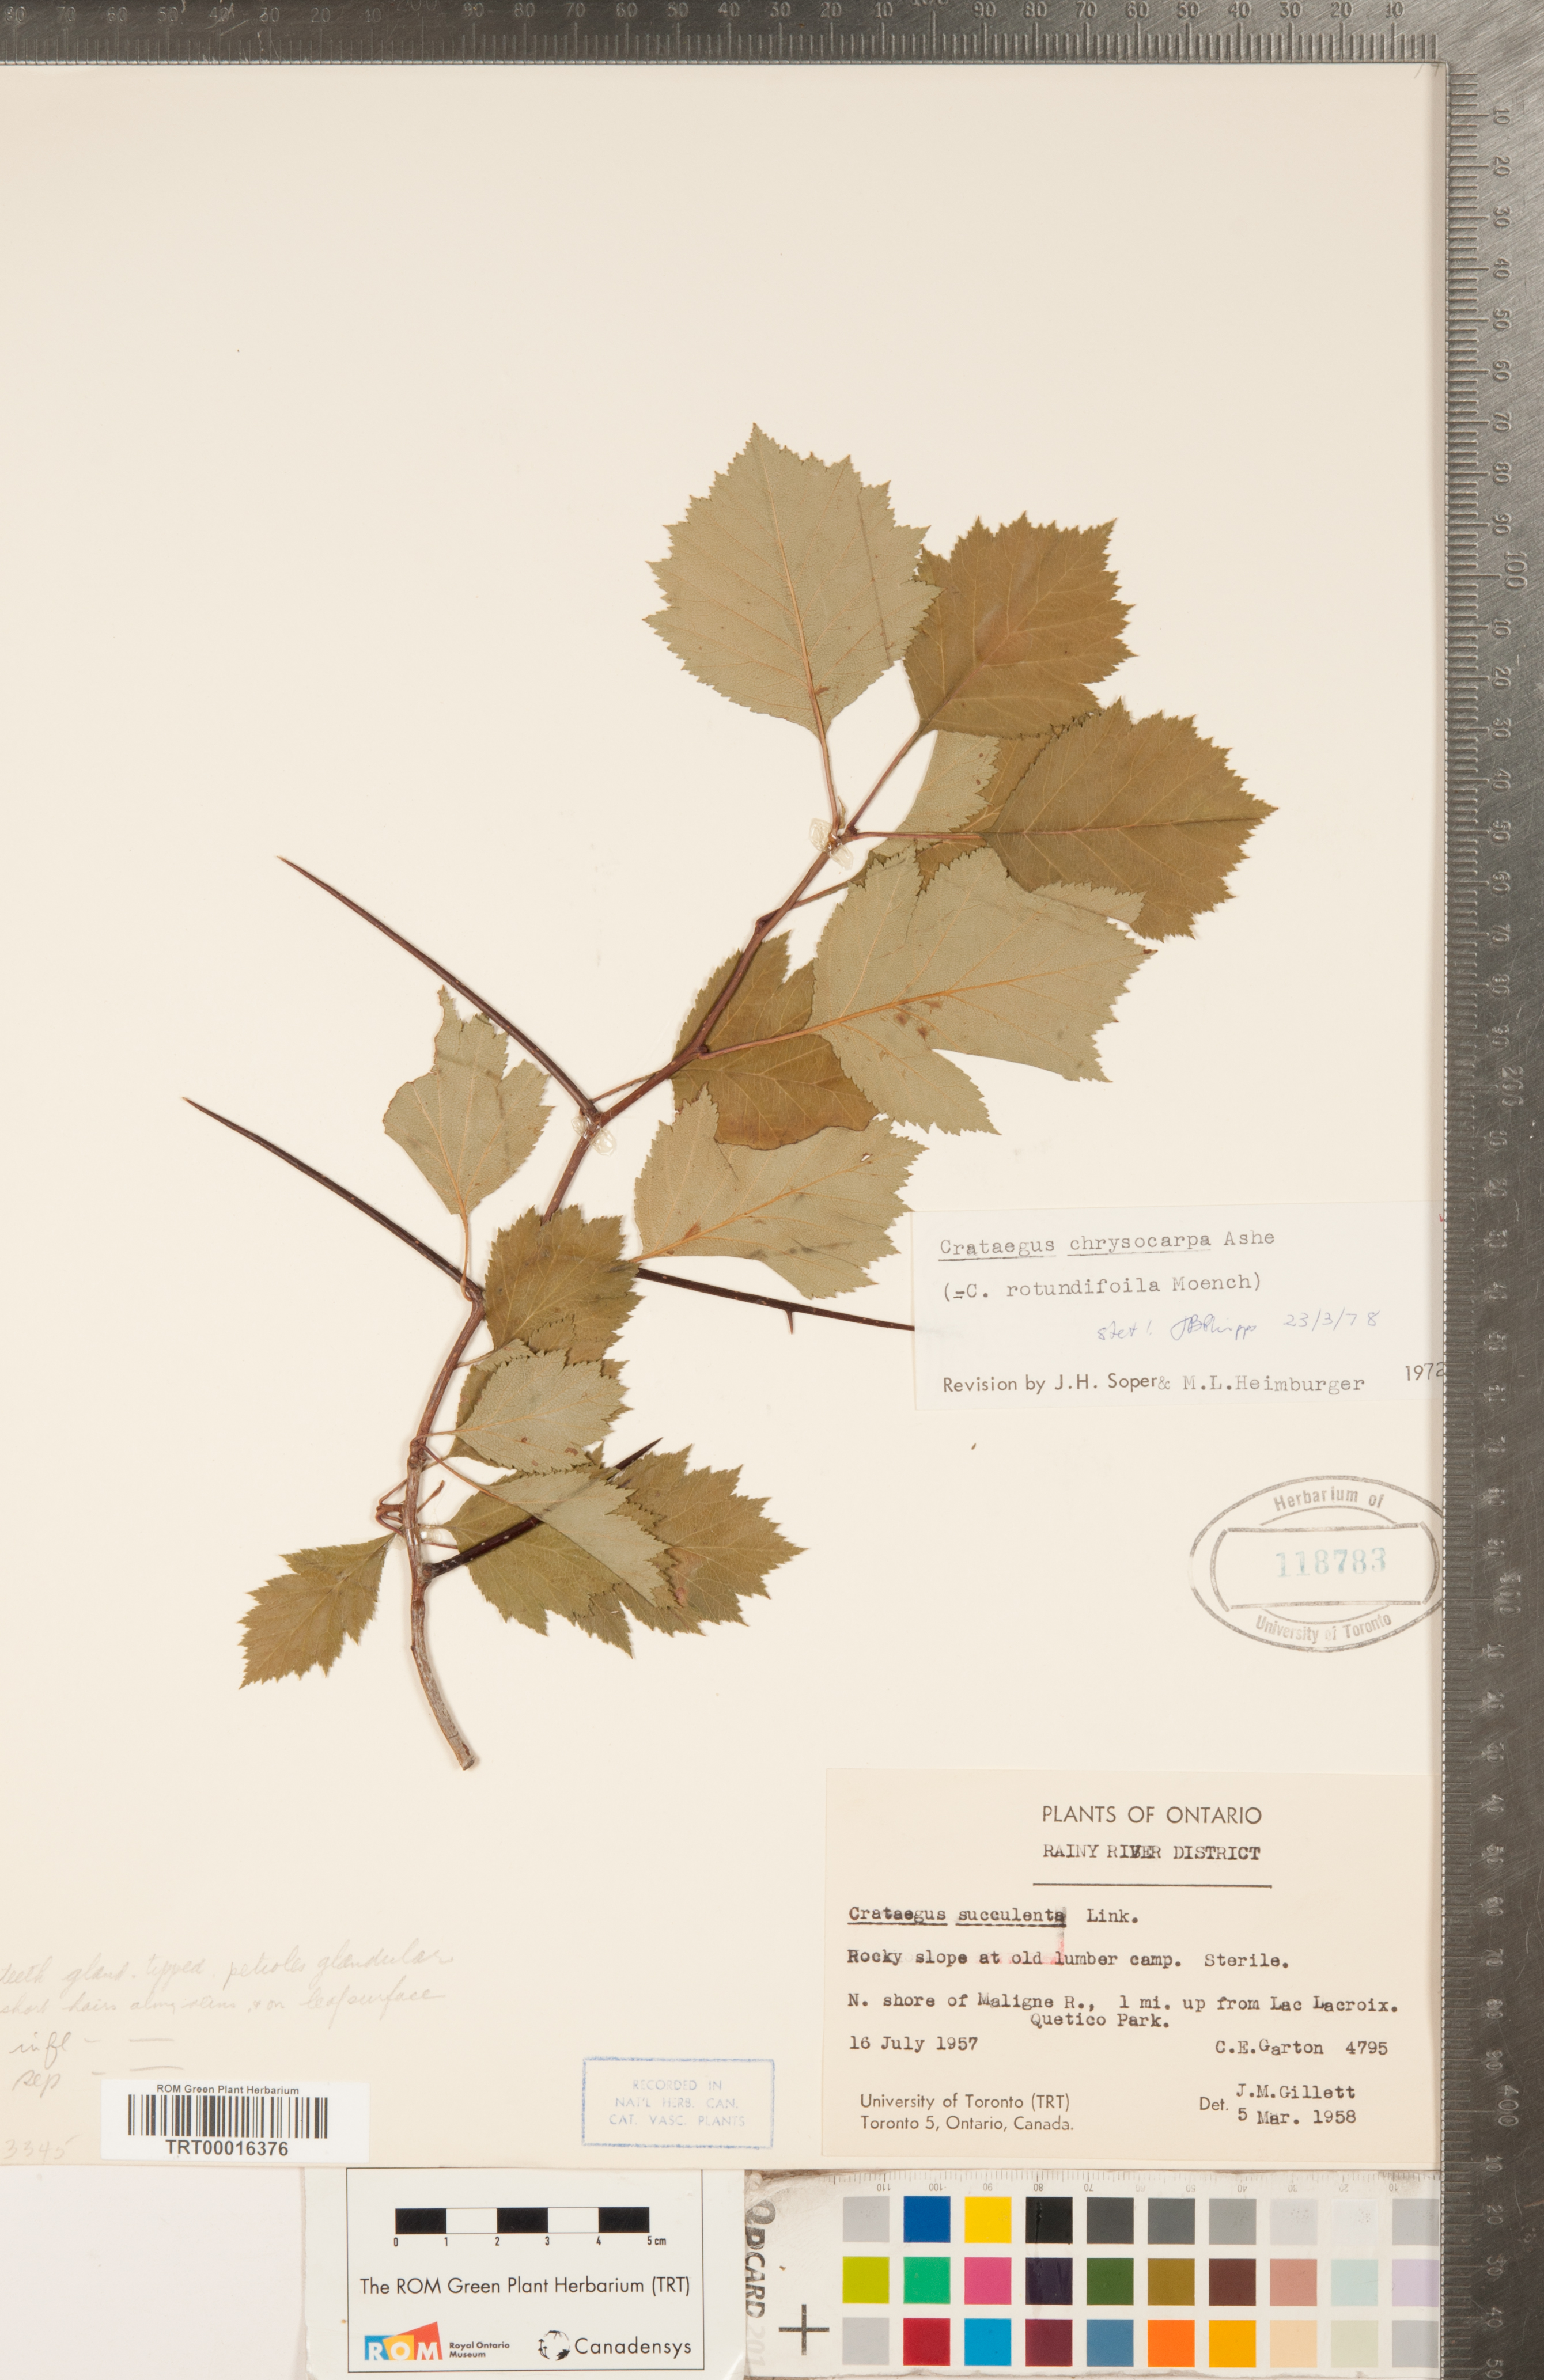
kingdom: Plantae
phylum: Tracheophyta
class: Magnoliopsida
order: Rosales
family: Rosaceae
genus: Crataegus
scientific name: Crataegus chrysocarpa
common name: Fire-berry hawthorn
